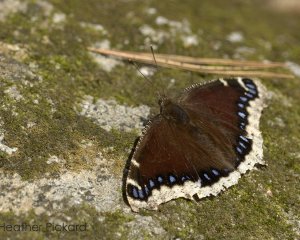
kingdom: Animalia
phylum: Arthropoda
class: Insecta
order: Lepidoptera
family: Nymphalidae
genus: Nymphalis
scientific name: Nymphalis antiopa
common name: Mourning Cloak
